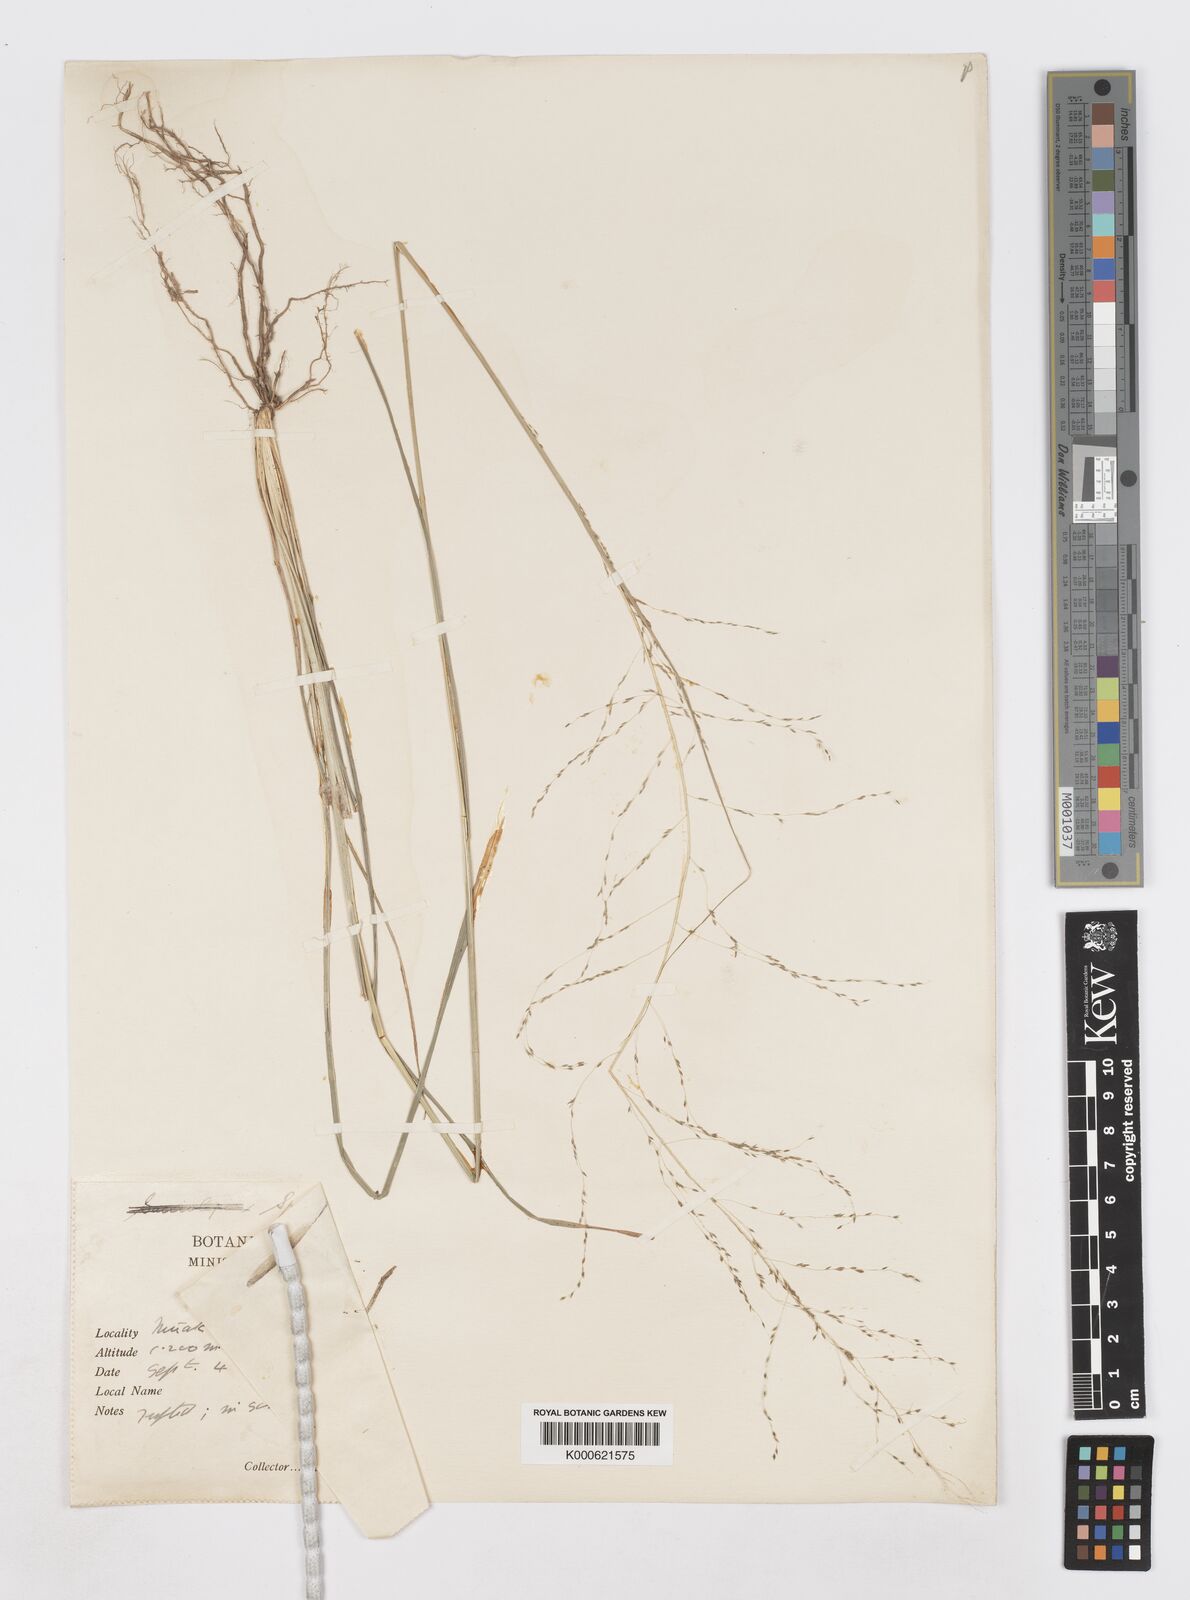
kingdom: Plantae
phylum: Tracheophyta
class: Liliopsida
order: Poales
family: Poaceae
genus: Sporobolus
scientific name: Sporobolus
